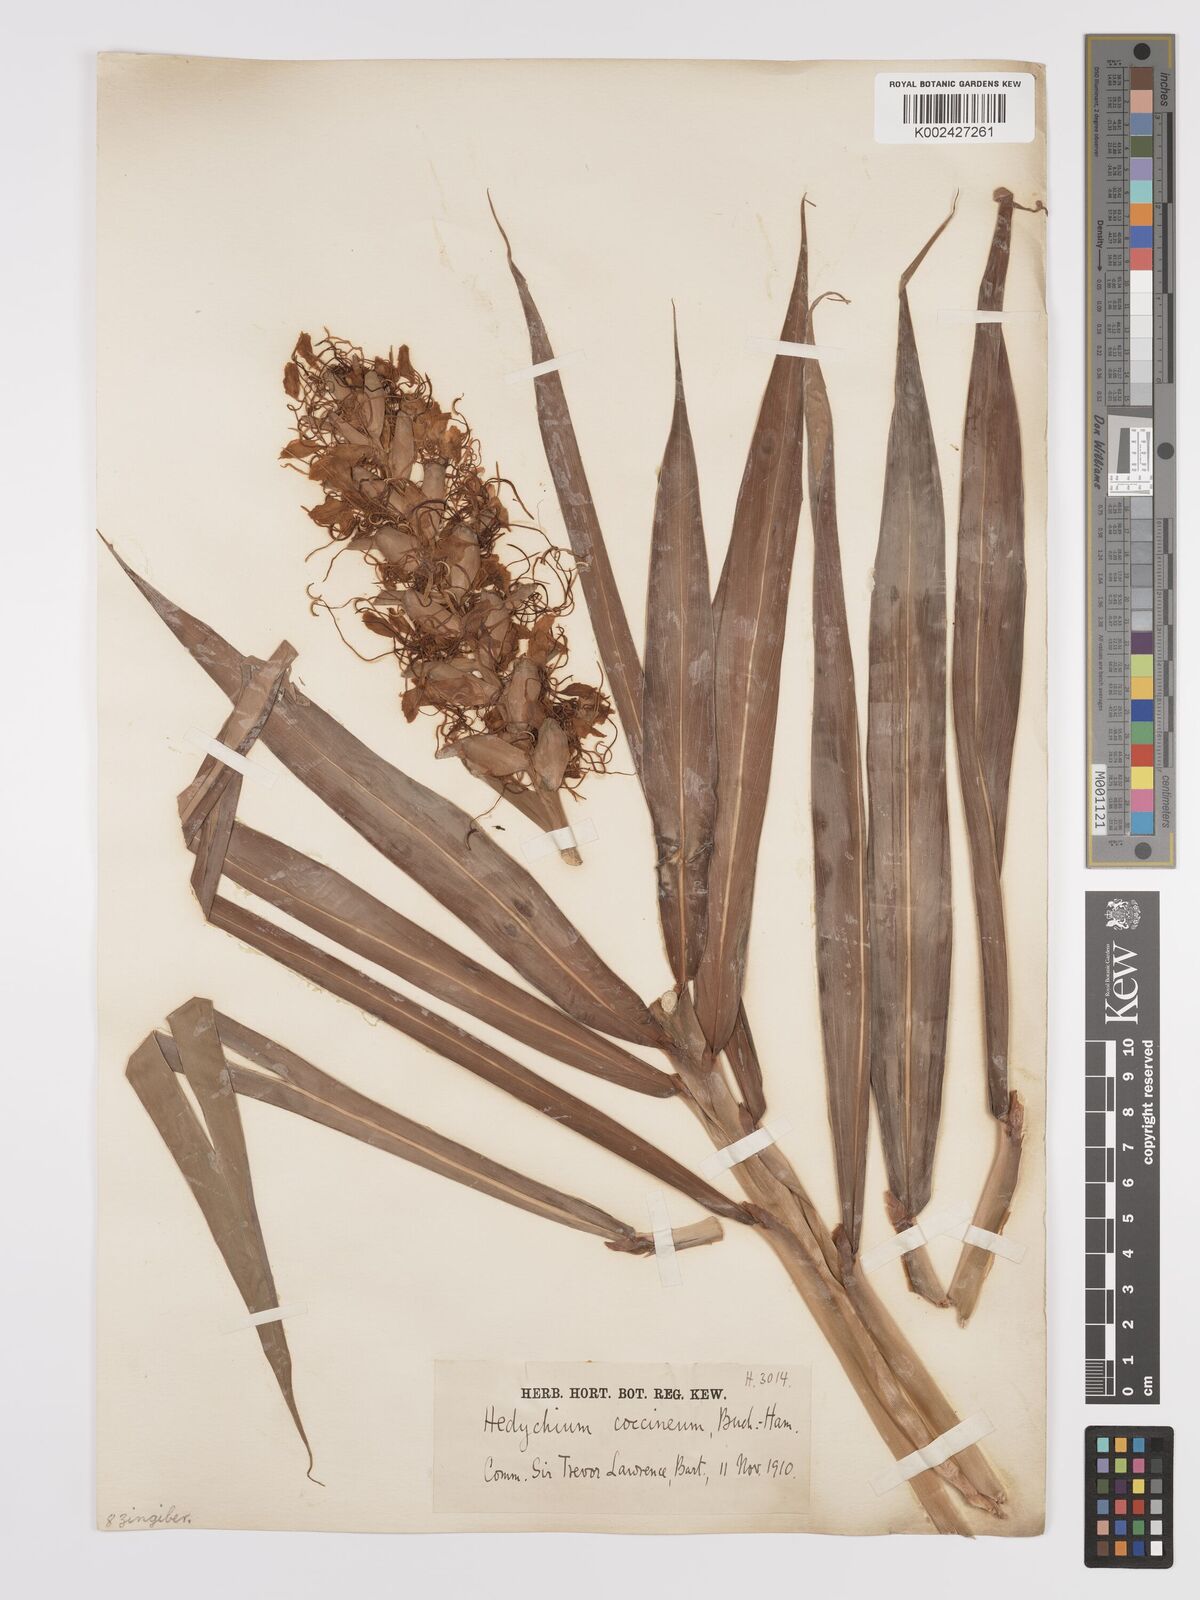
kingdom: Plantae
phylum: Tracheophyta
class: Liliopsida
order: Zingiberales
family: Zingiberaceae
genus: Hedychium
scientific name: Hedychium coccineum
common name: Red ginger-lily
